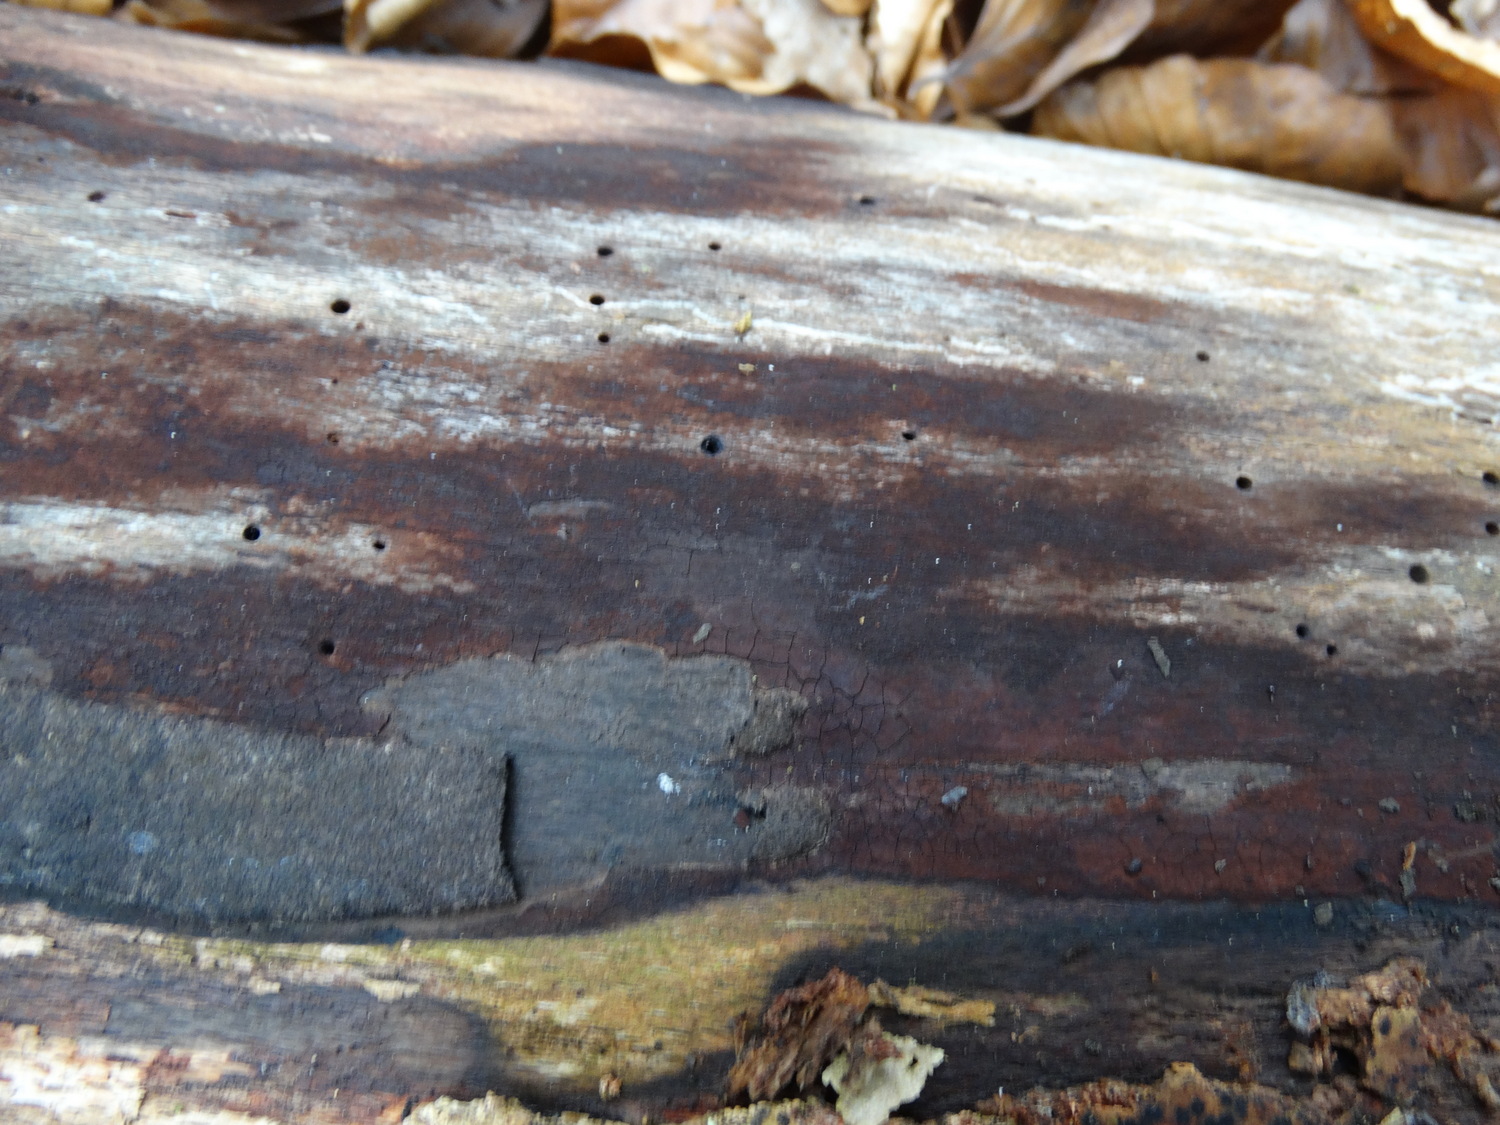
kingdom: Fungi
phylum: Ascomycota
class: Sordariomycetes
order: Xylariales
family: Hypoxylaceae
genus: Hypoxylon
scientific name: Hypoxylon macrocarpum
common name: skorpe-kulbær
